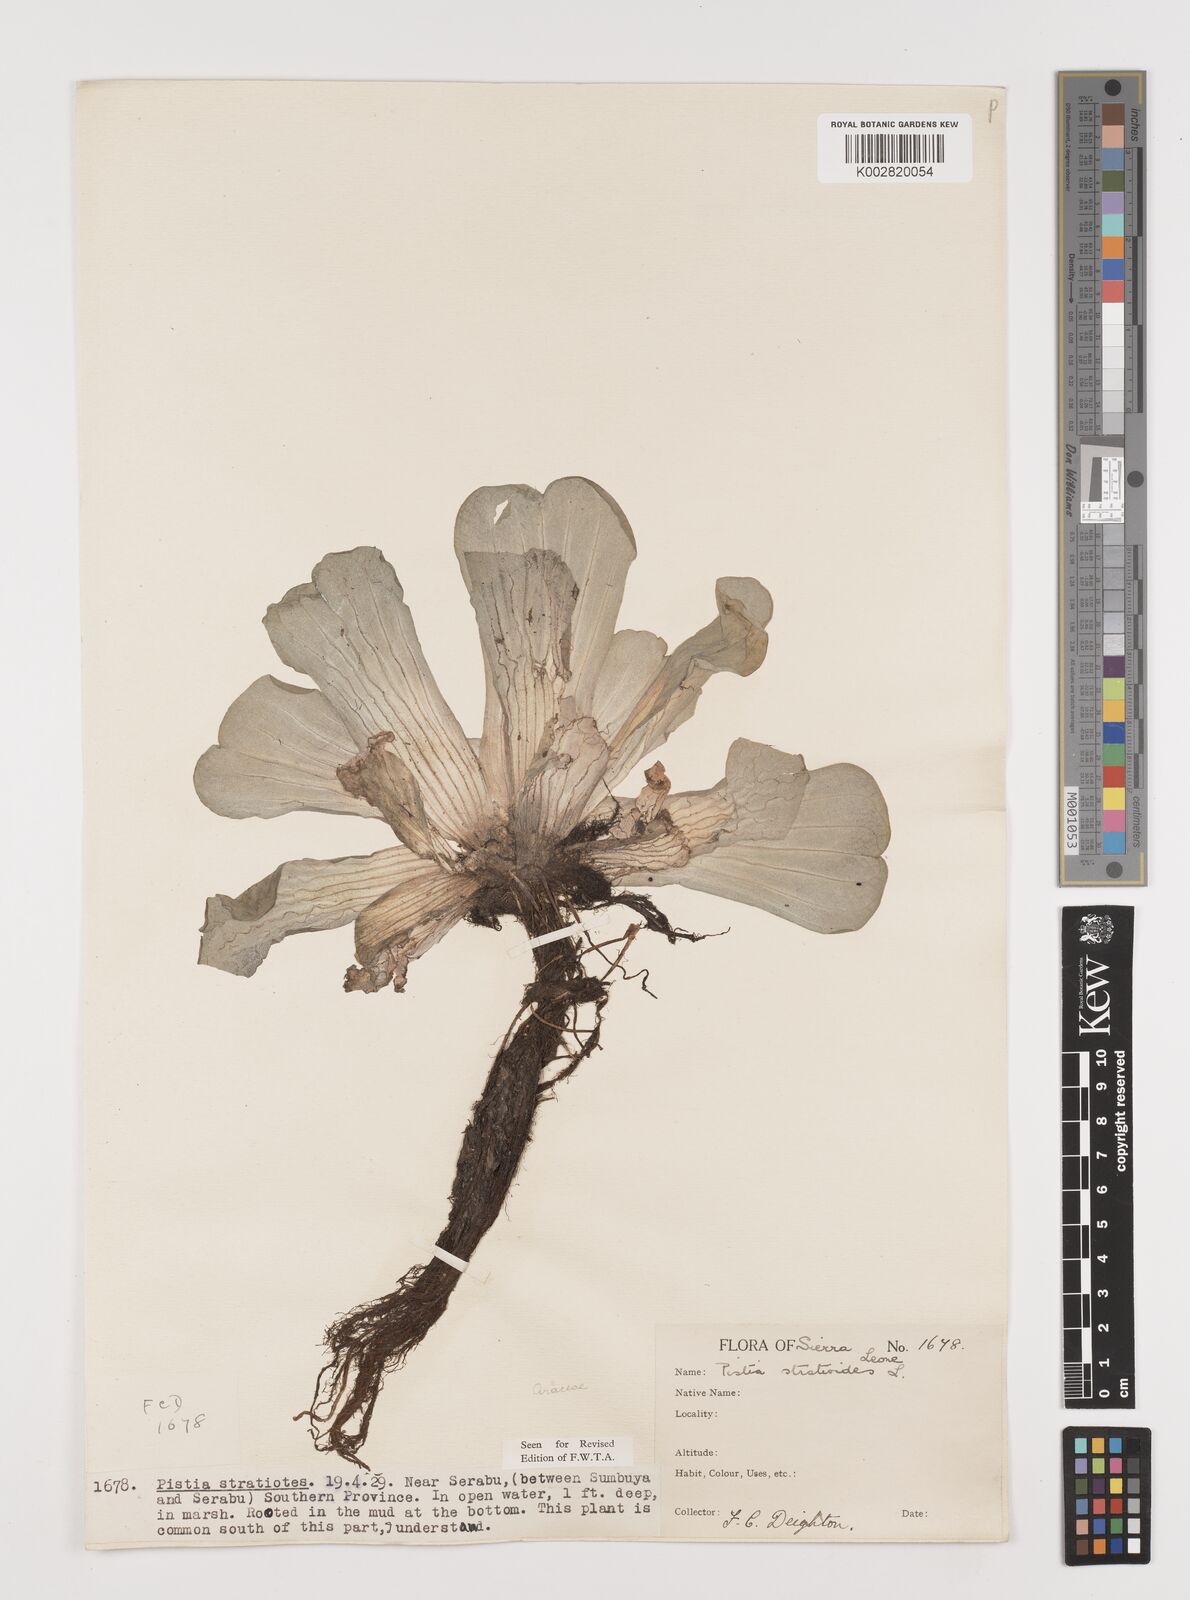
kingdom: Plantae
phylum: Tracheophyta
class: Liliopsida
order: Alismatales
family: Araceae
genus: Pistia
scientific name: Pistia stratiotes
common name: Water lettuce
